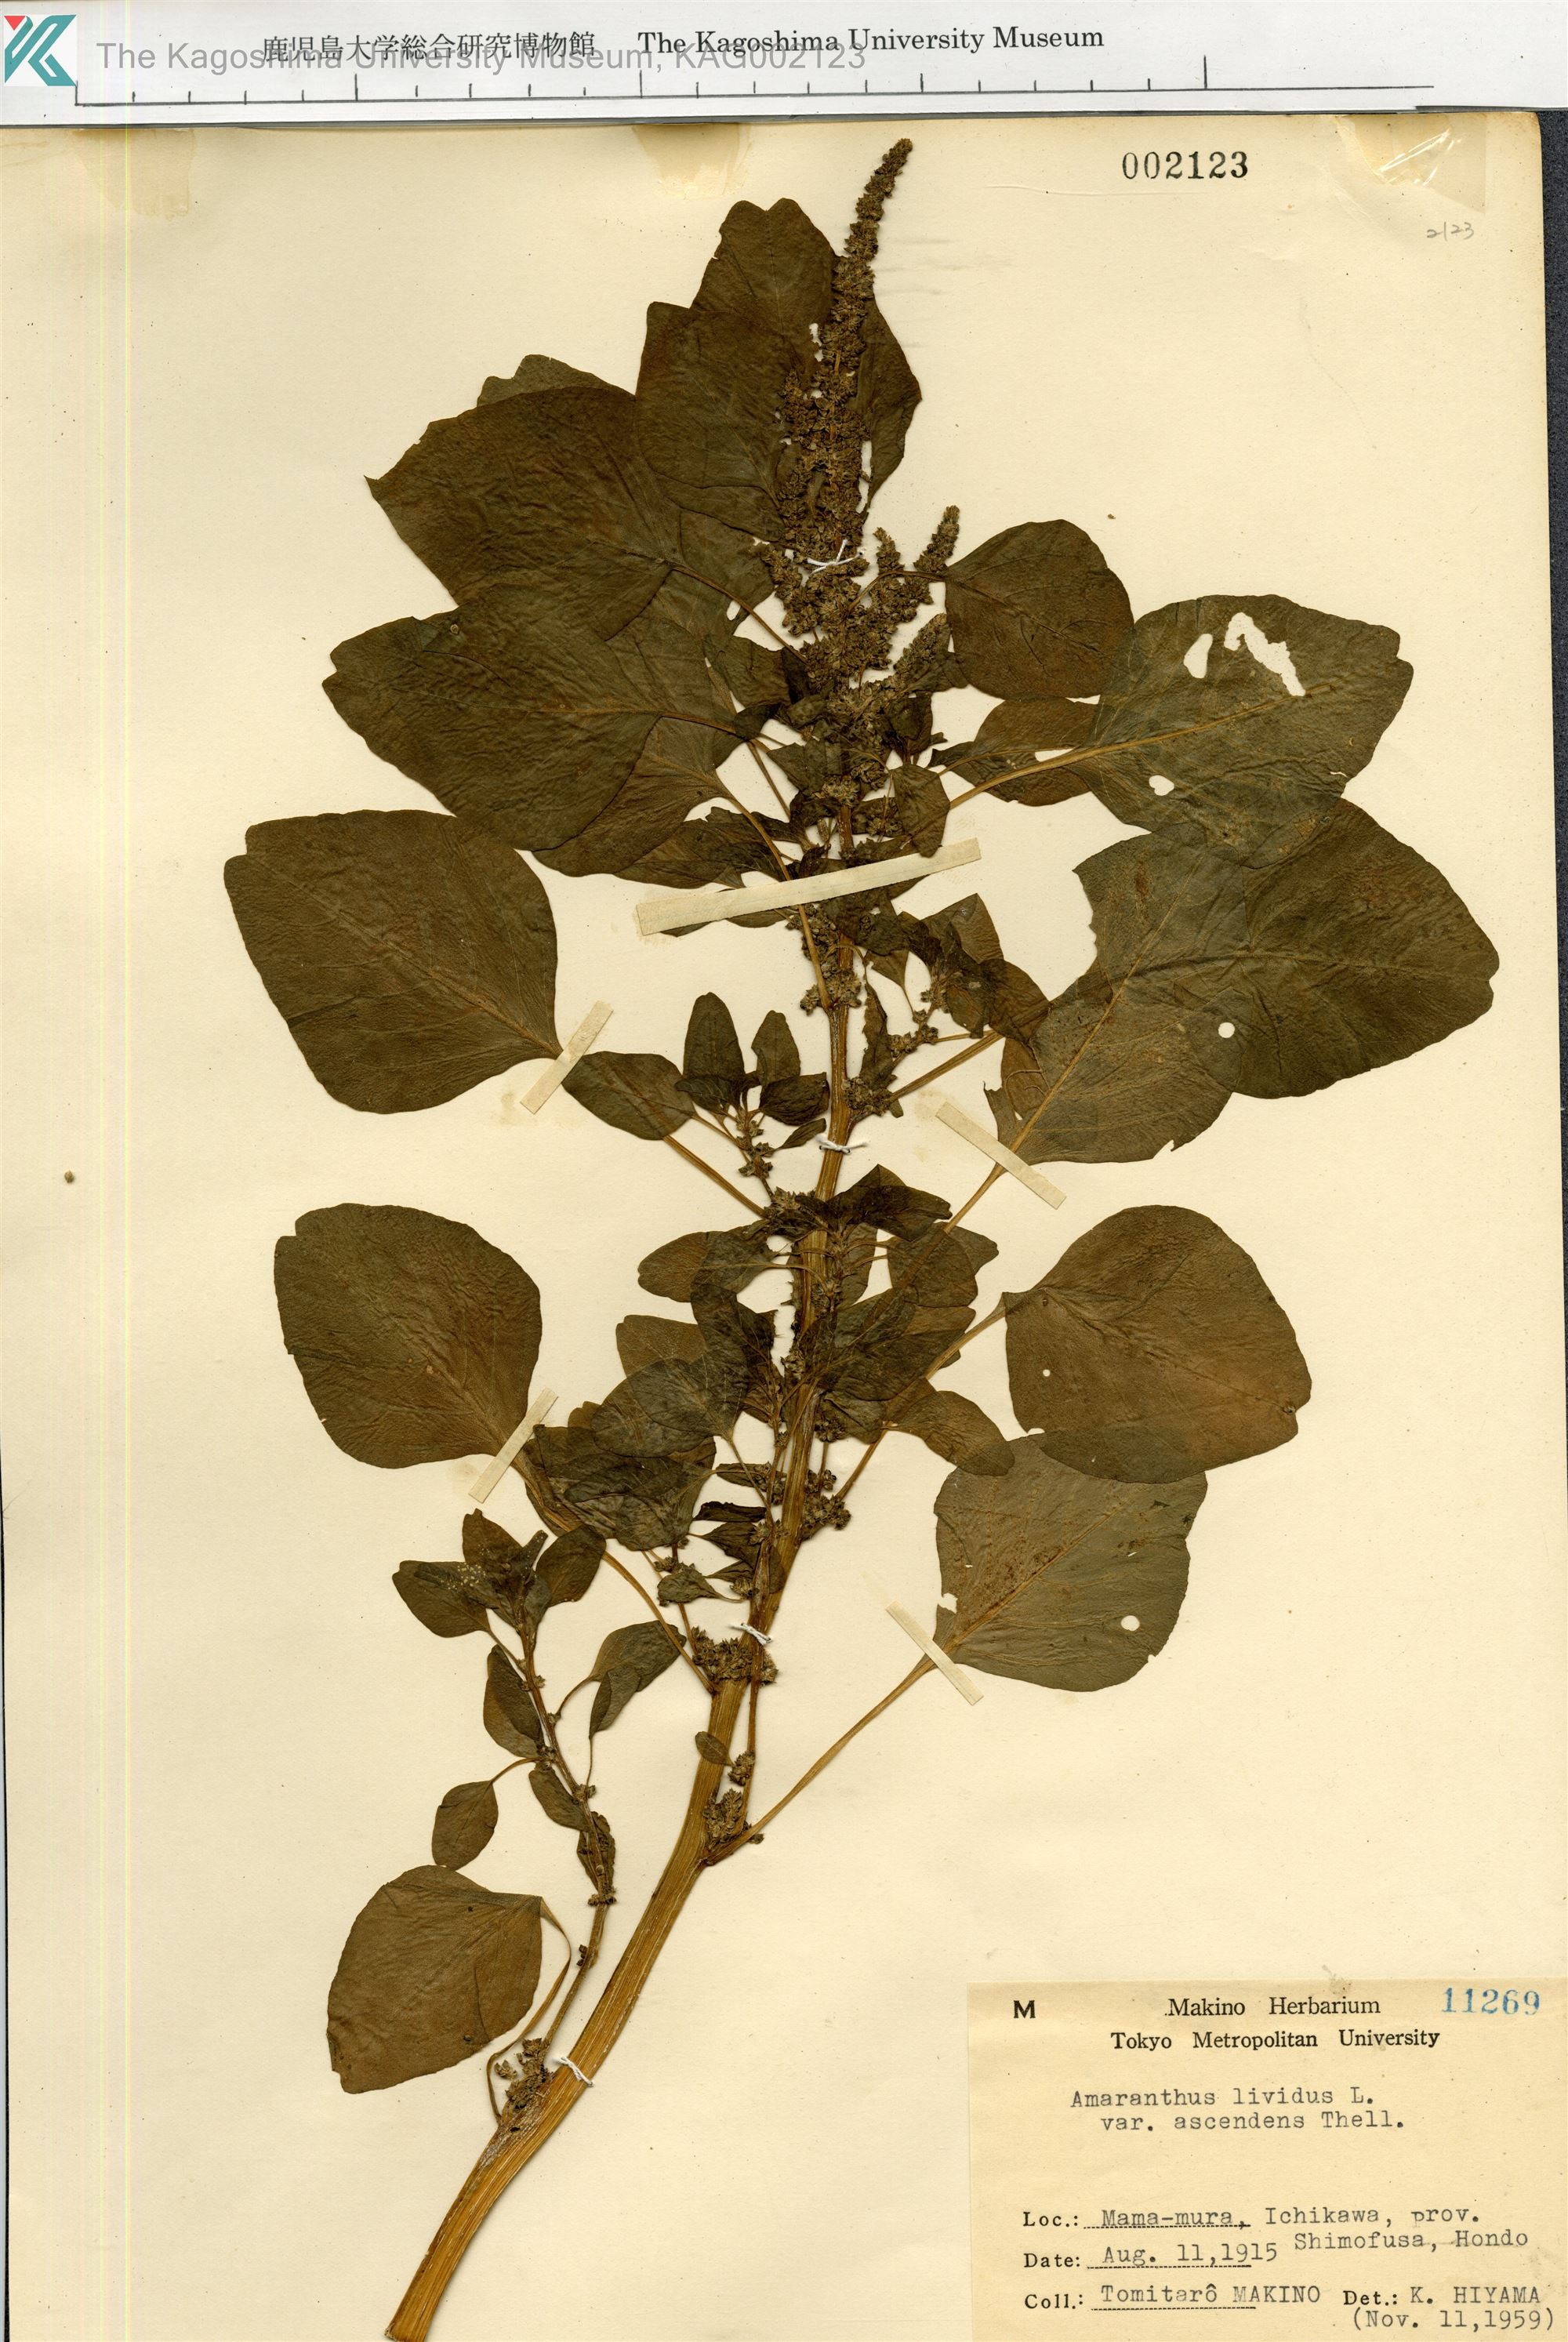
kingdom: Plantae
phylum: Tracheophyta
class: Magnoliopsida
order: Caryophyllales
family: Amaranthaceae
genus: Amaranthus
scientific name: Amaranthus blitum
